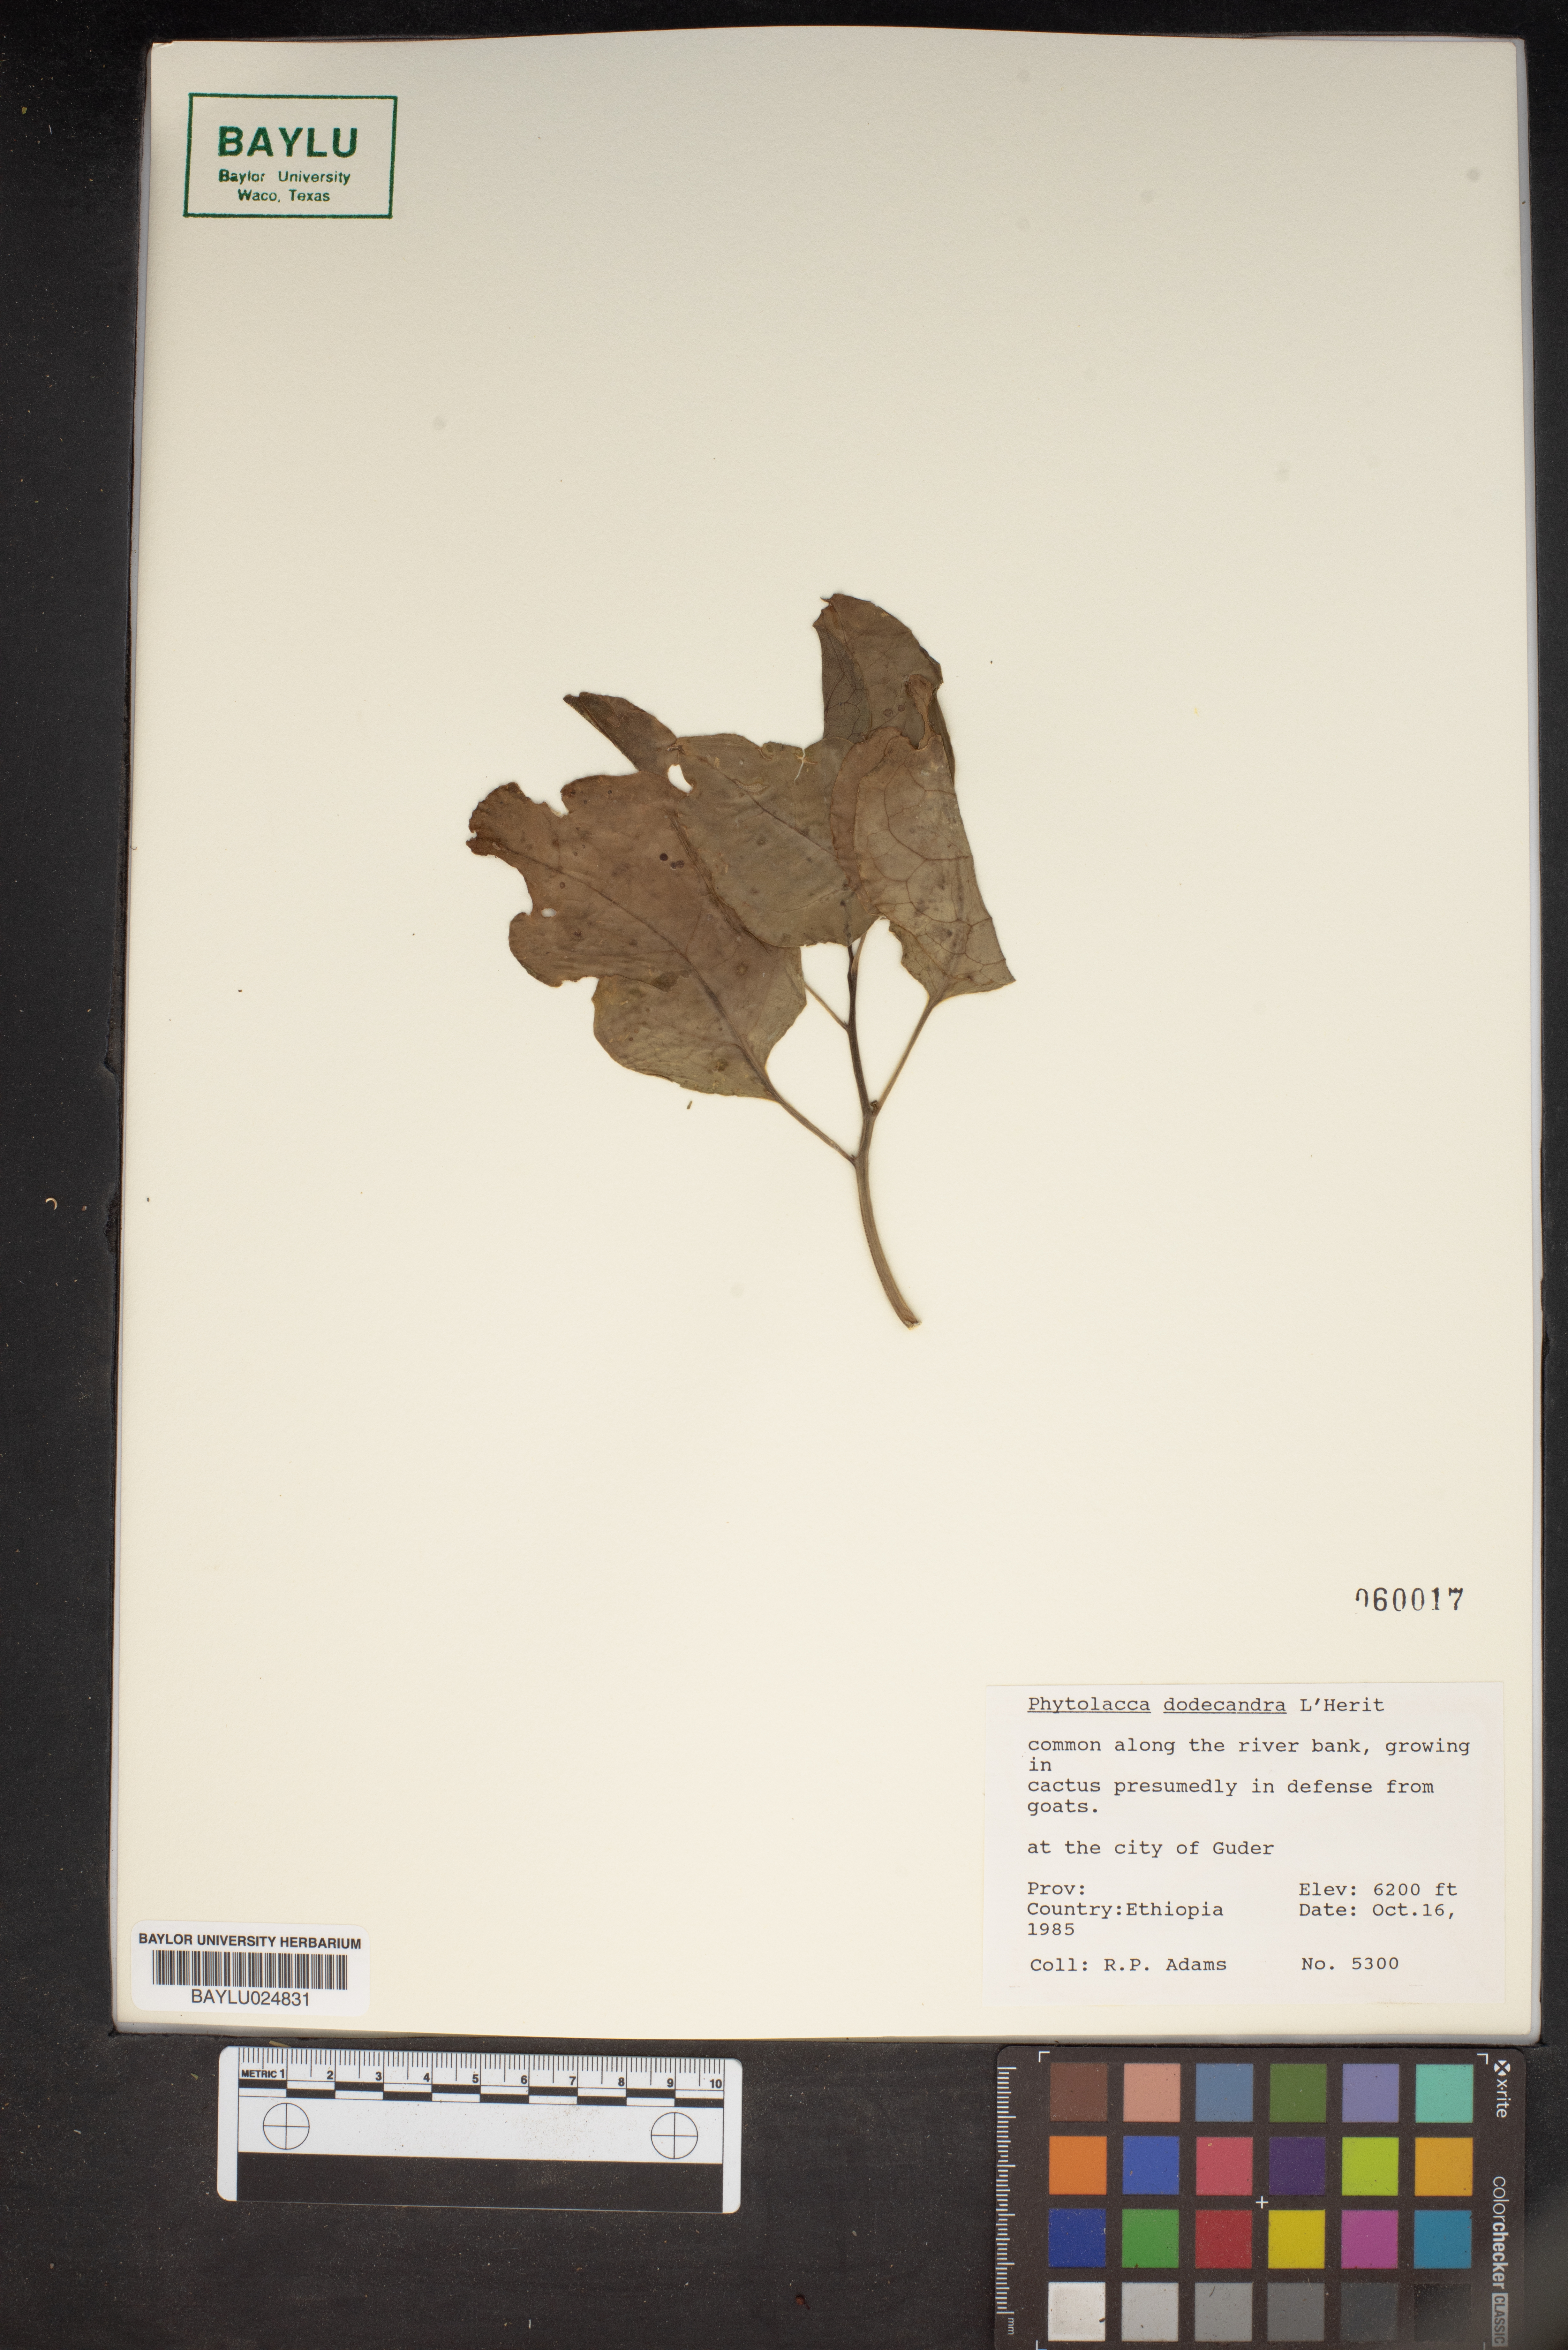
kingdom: Plantae
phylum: Tracheophyta
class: Magnoliopsida
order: Caryophyllales
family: Phytolaccaceae
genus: Phytolacca
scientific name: Phytolacca dodecandra
